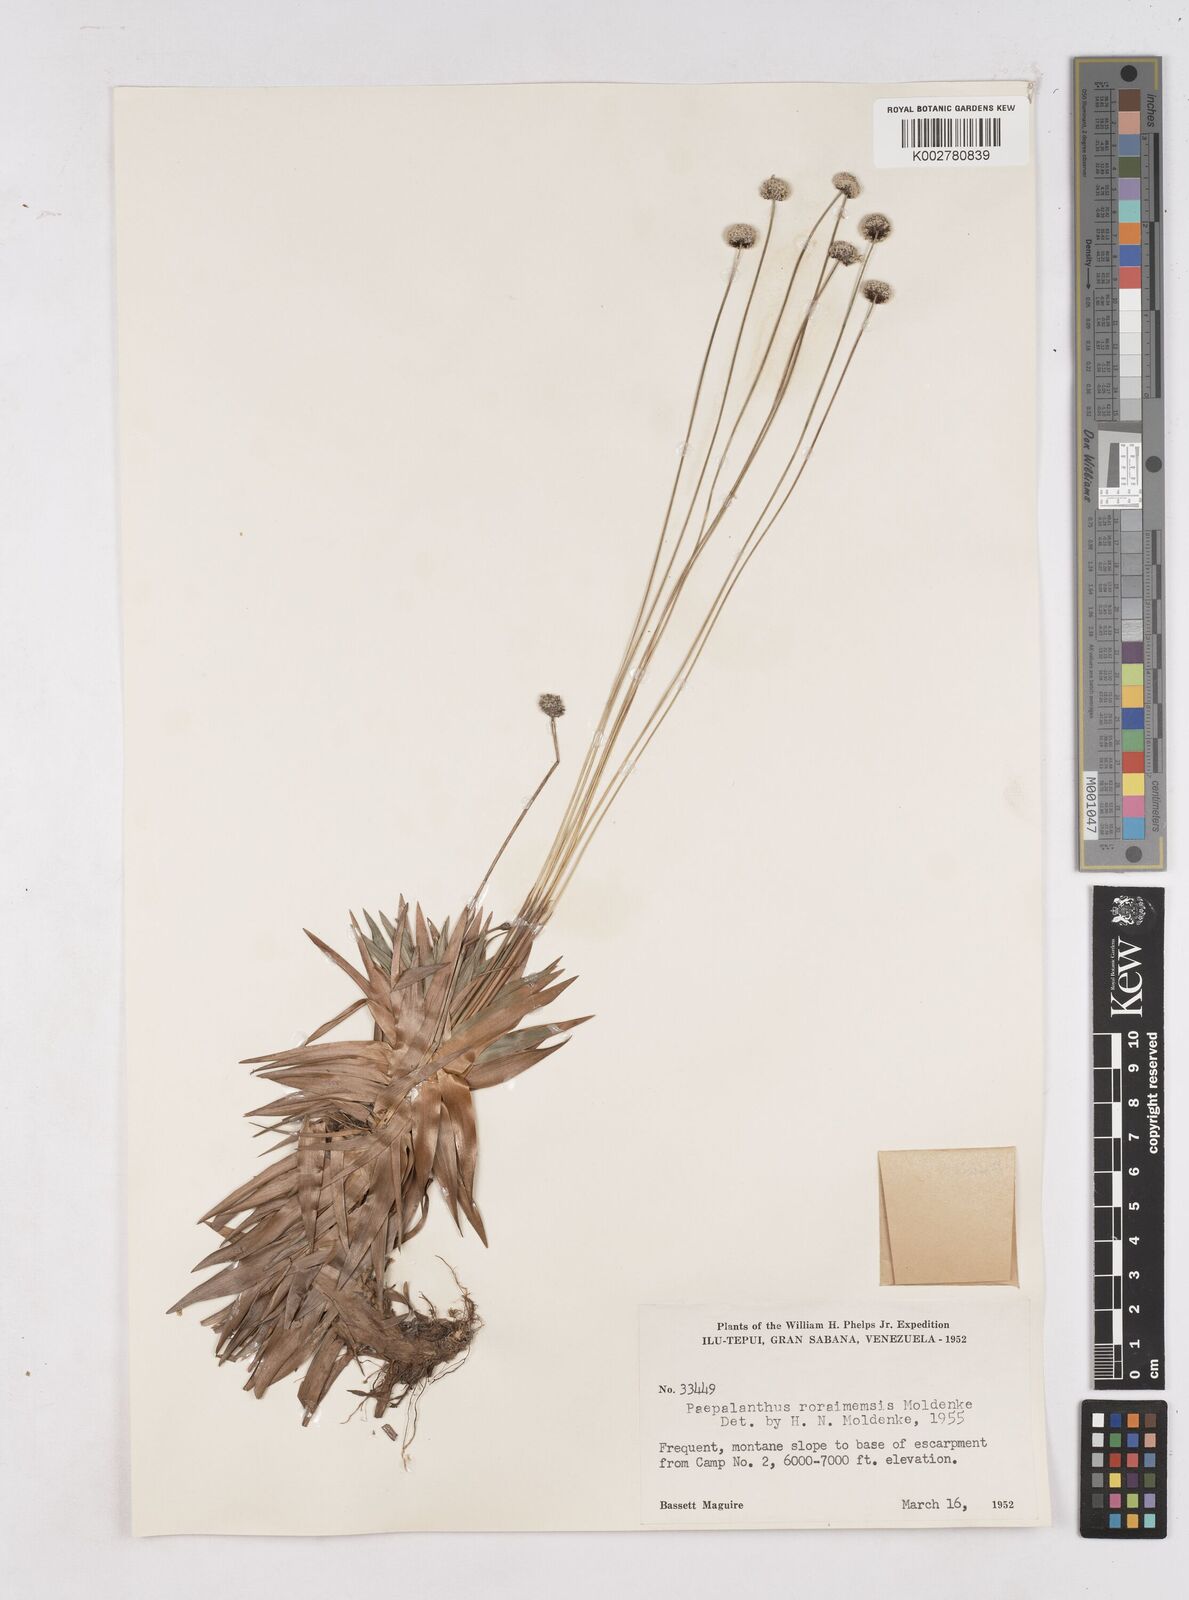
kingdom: Plantae
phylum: Tracheophyta
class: Liliopsida
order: Poales
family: Eriocaulaceae
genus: Paepalanthus
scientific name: Paepalanthus roraimensis
